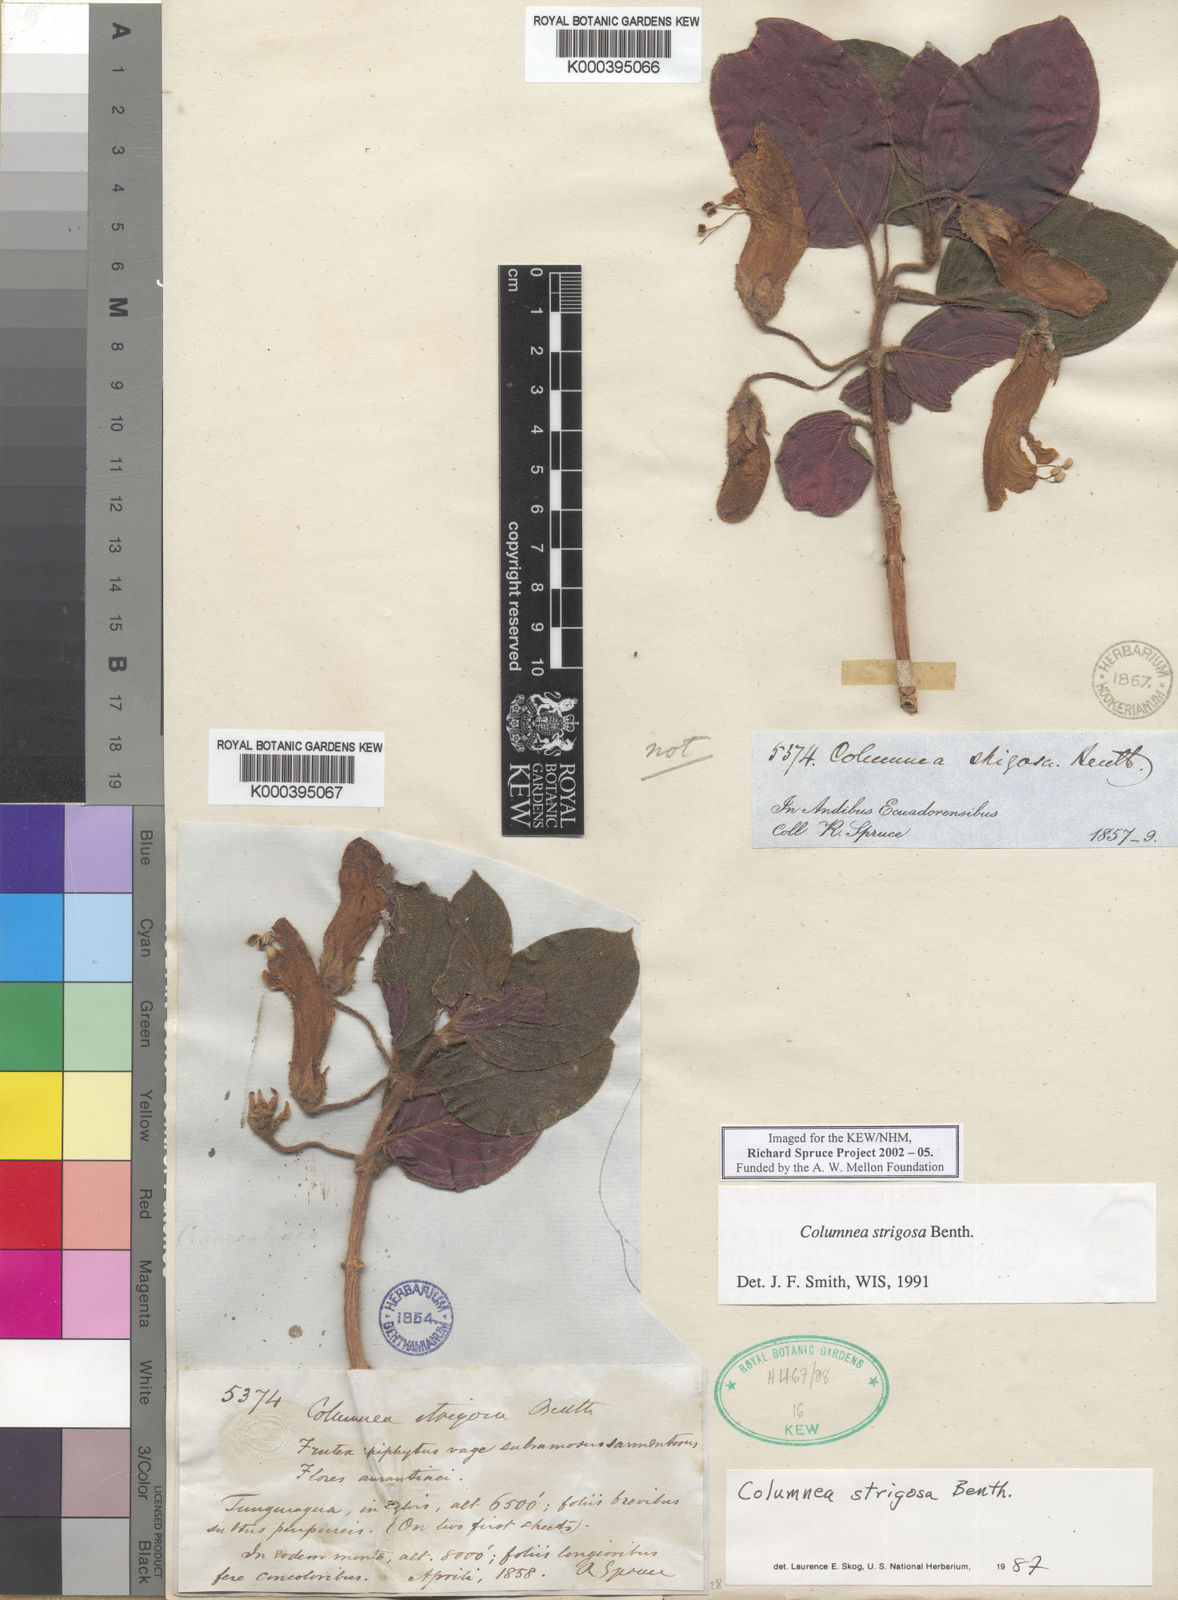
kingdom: Plantae
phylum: Tracheophyta
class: Magnoliopsida
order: Lamiales
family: Gesneriaceae
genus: Columnea
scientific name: Columnea strigosa
